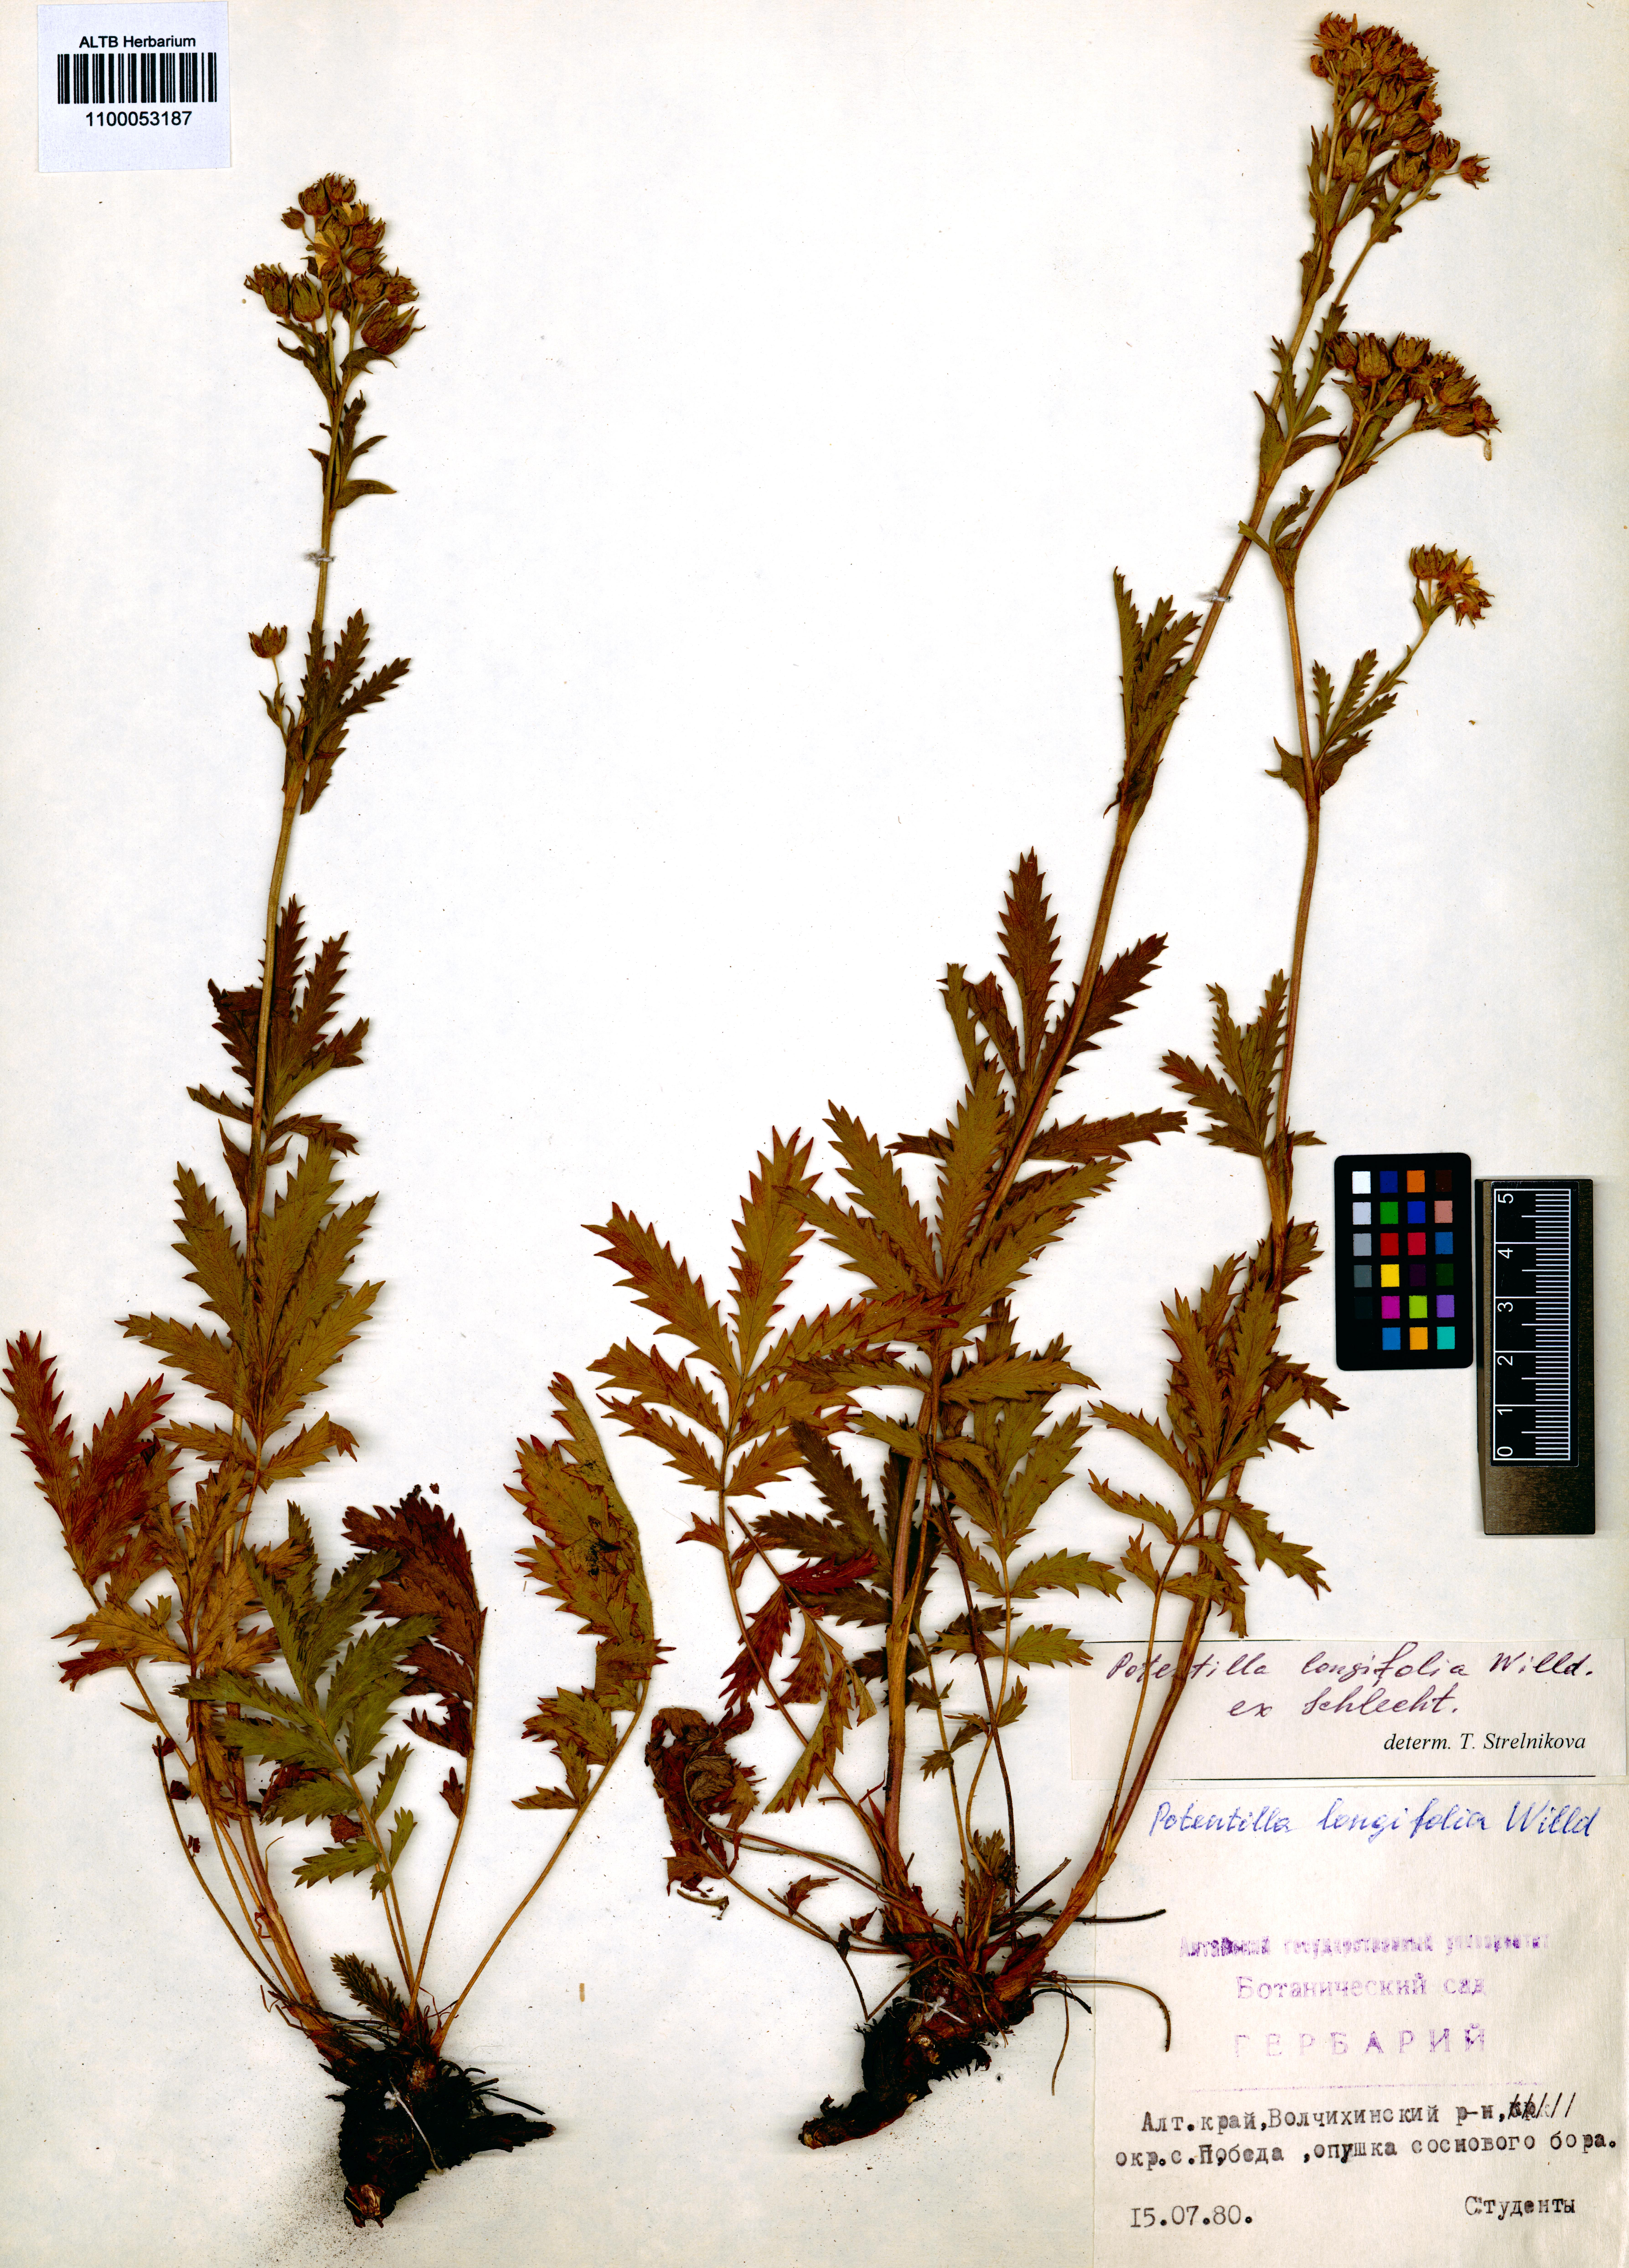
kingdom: Plantae
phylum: Tracheophyta
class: Magnoliopsida
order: Rosales
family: Rosaceae
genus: Potentilla
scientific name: Potentilla longifolia
